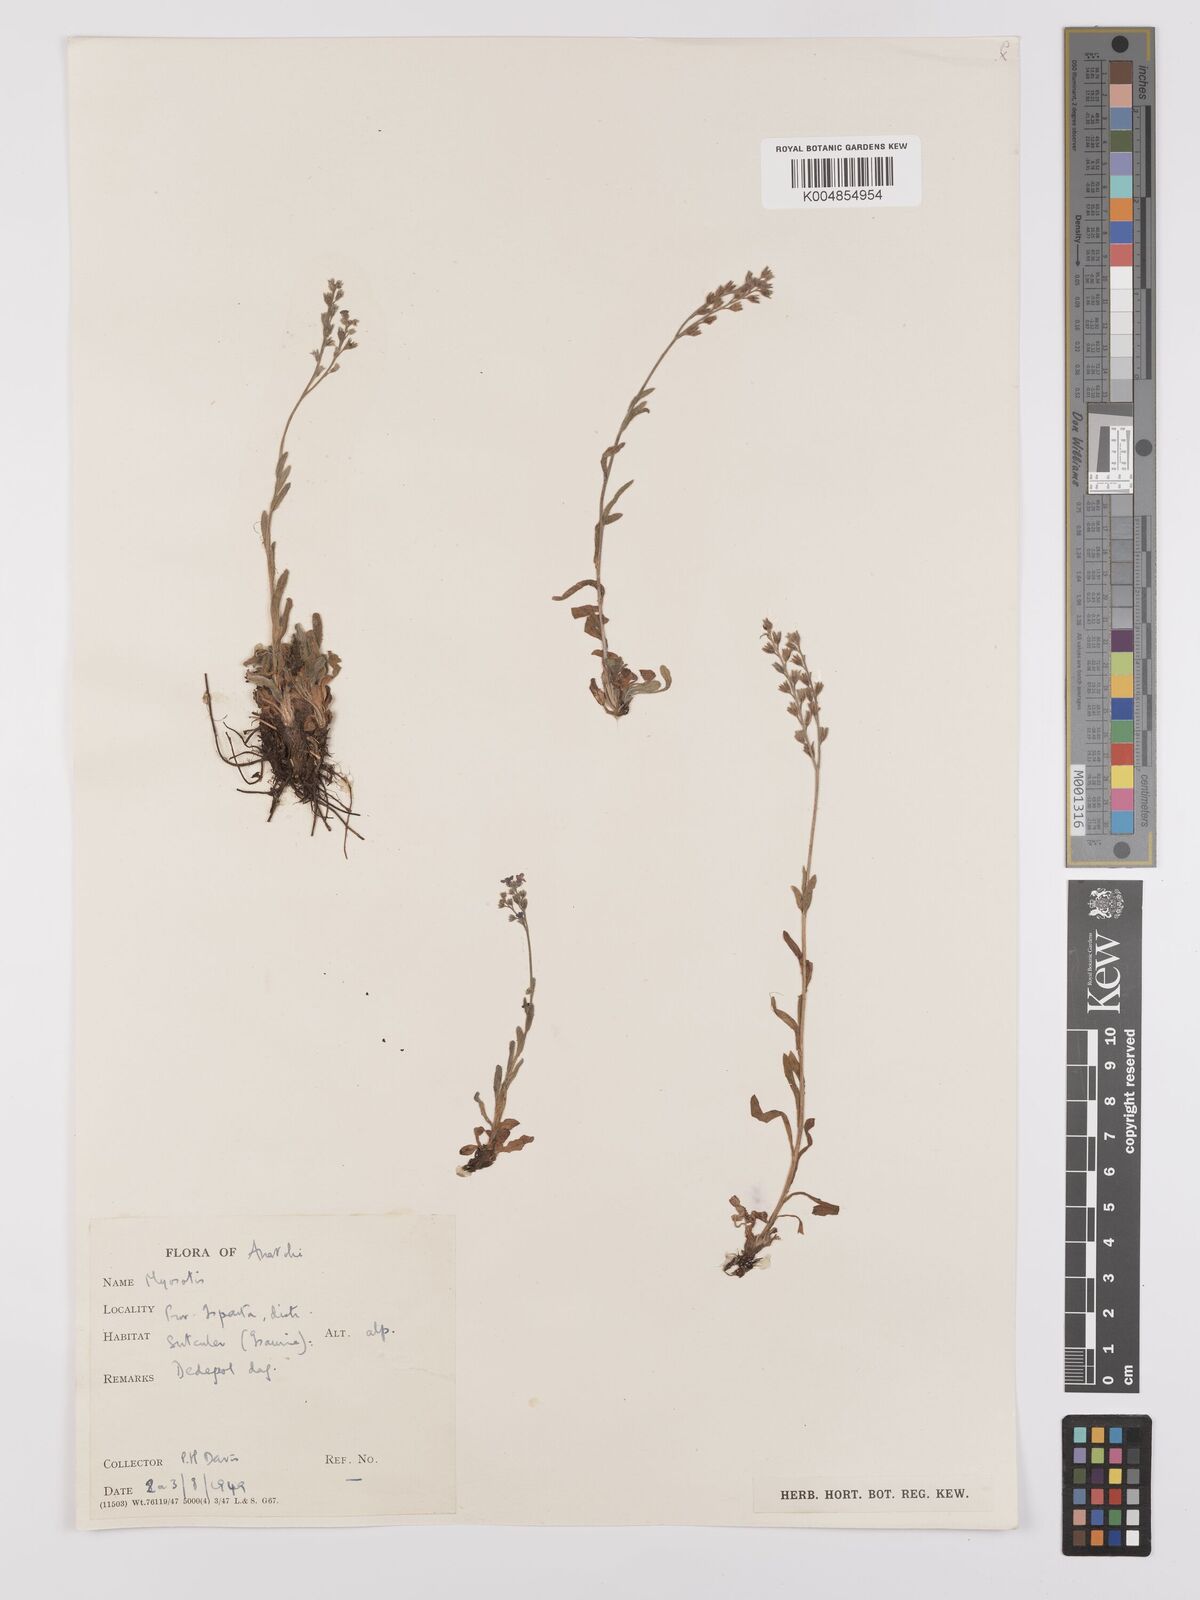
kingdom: Plantae
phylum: Tracheophyta
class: Magnoliopsida
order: Boraginales
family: Boraginaceae
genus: Myosotis
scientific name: Myosotis
